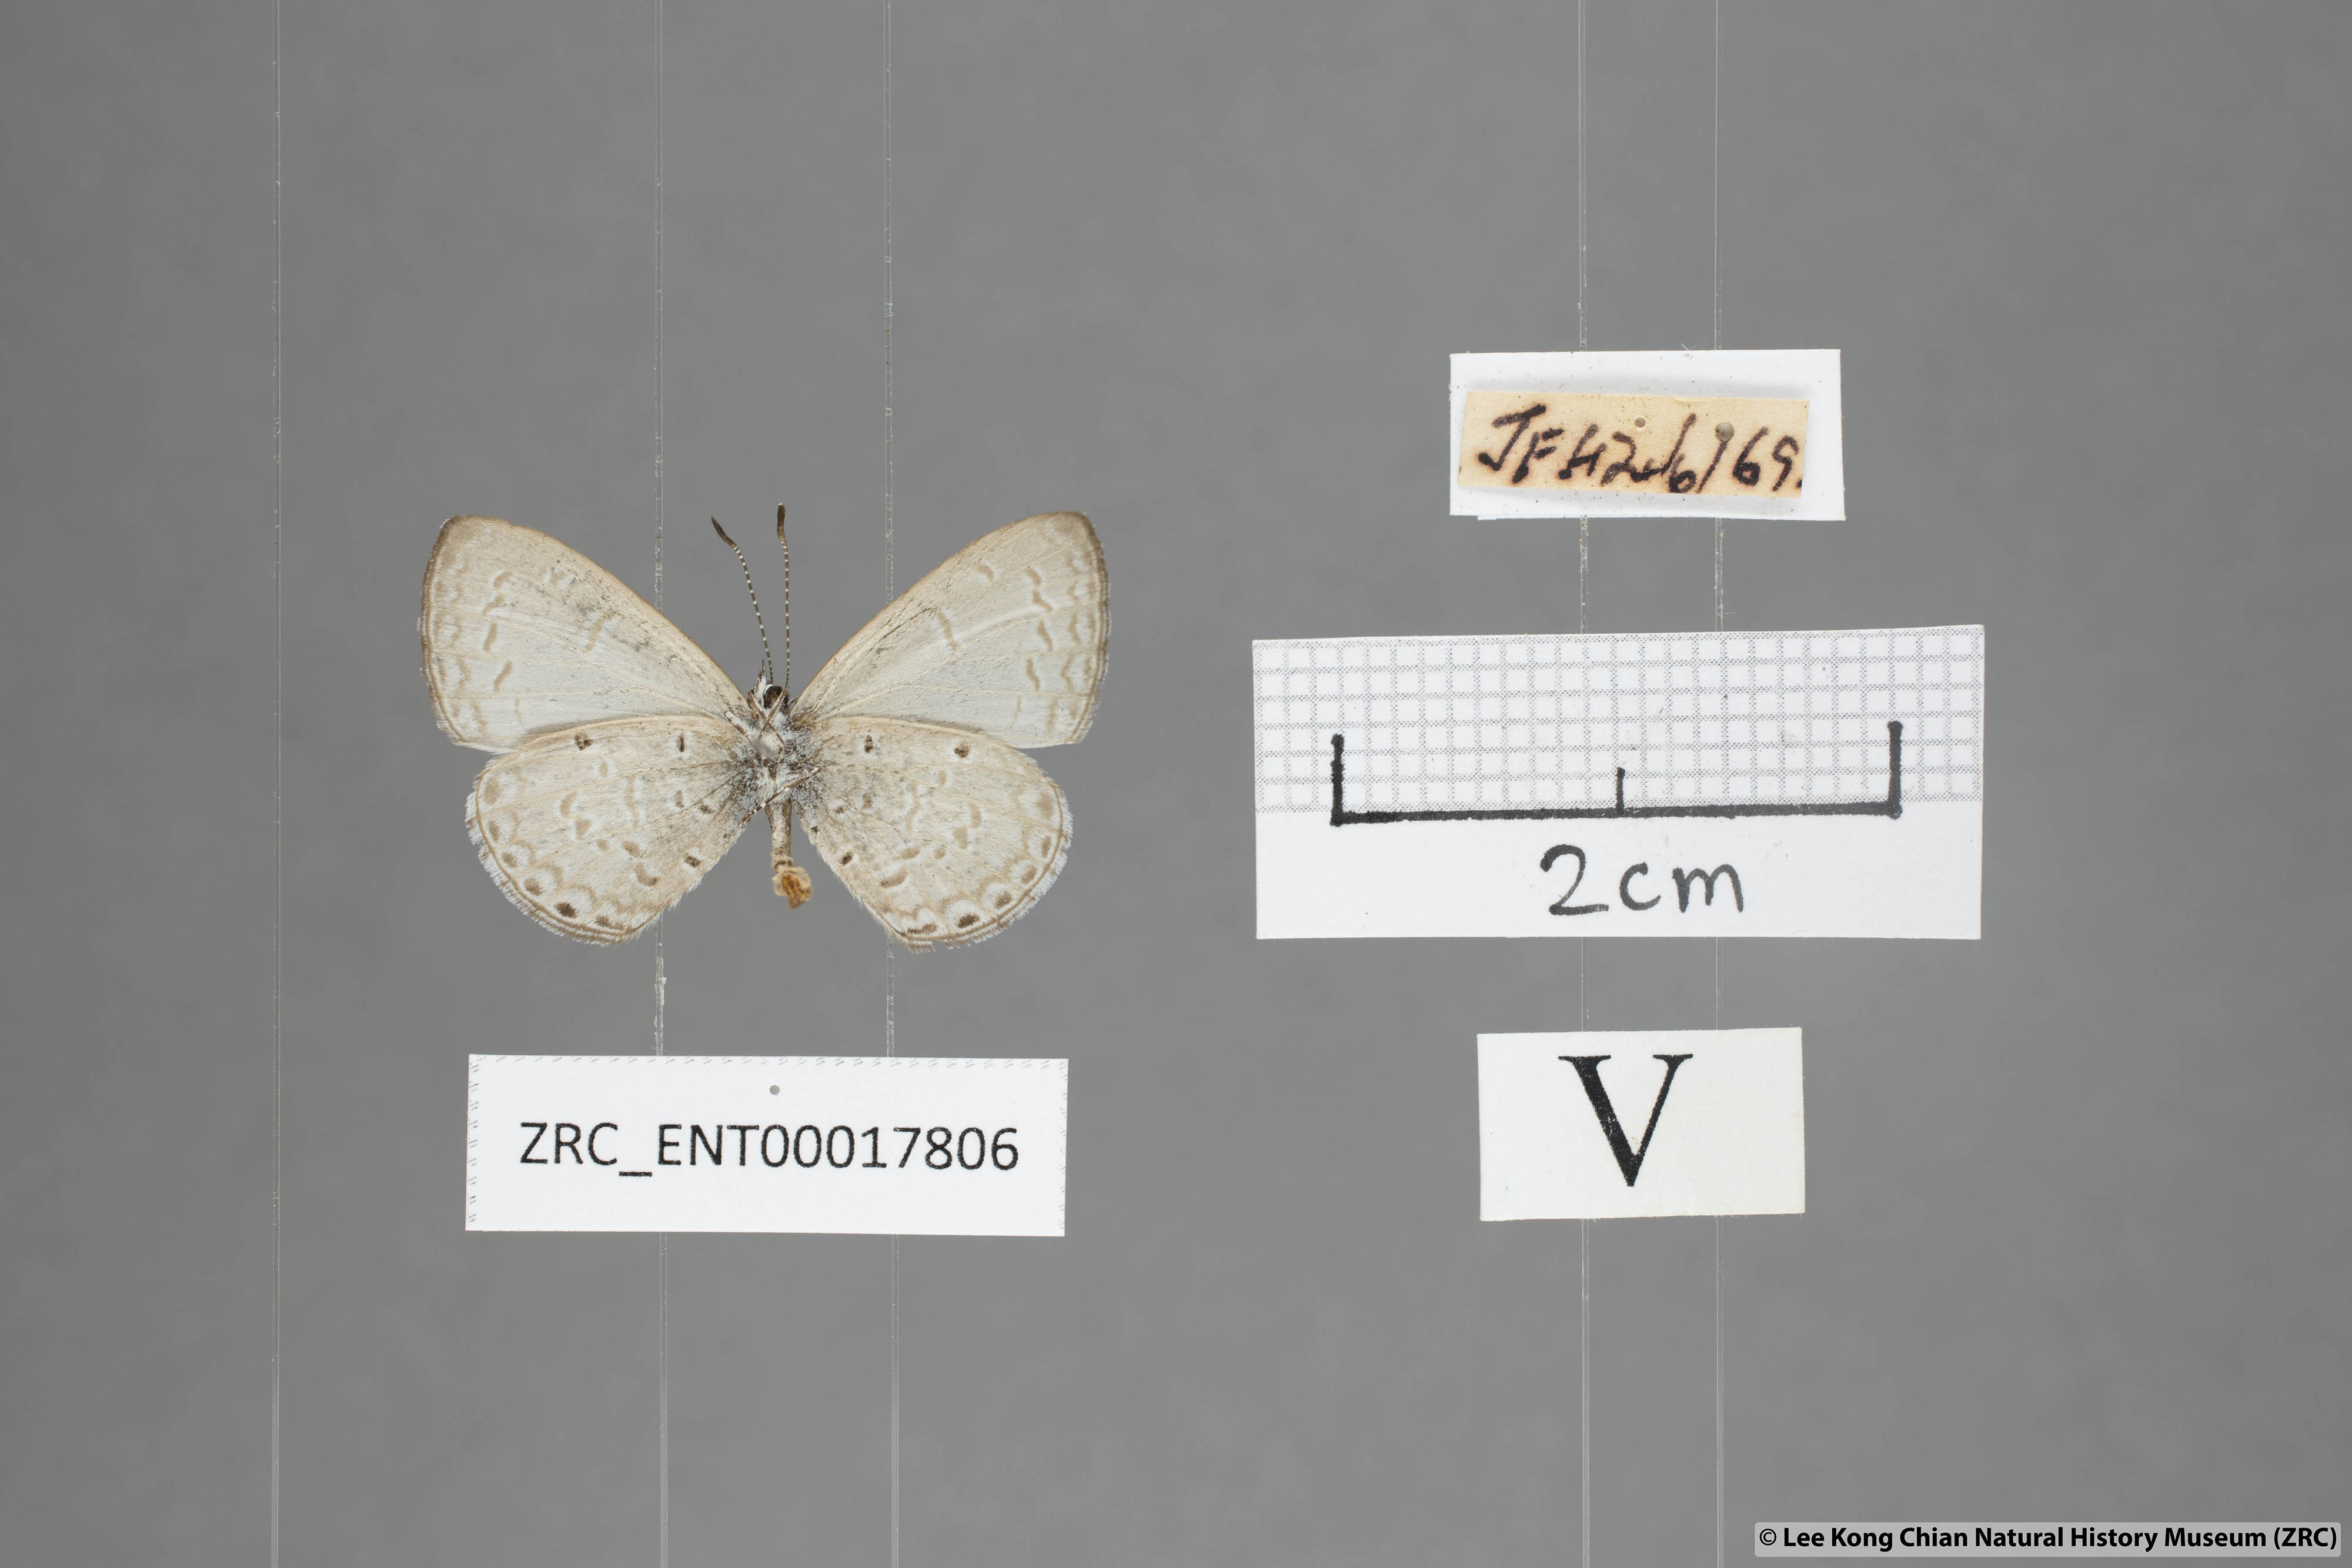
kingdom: Animalia
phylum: Arthropoda
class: Insecta
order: Lepidoptera
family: Lycaenidae
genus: Monodontides
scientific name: Monodontides
